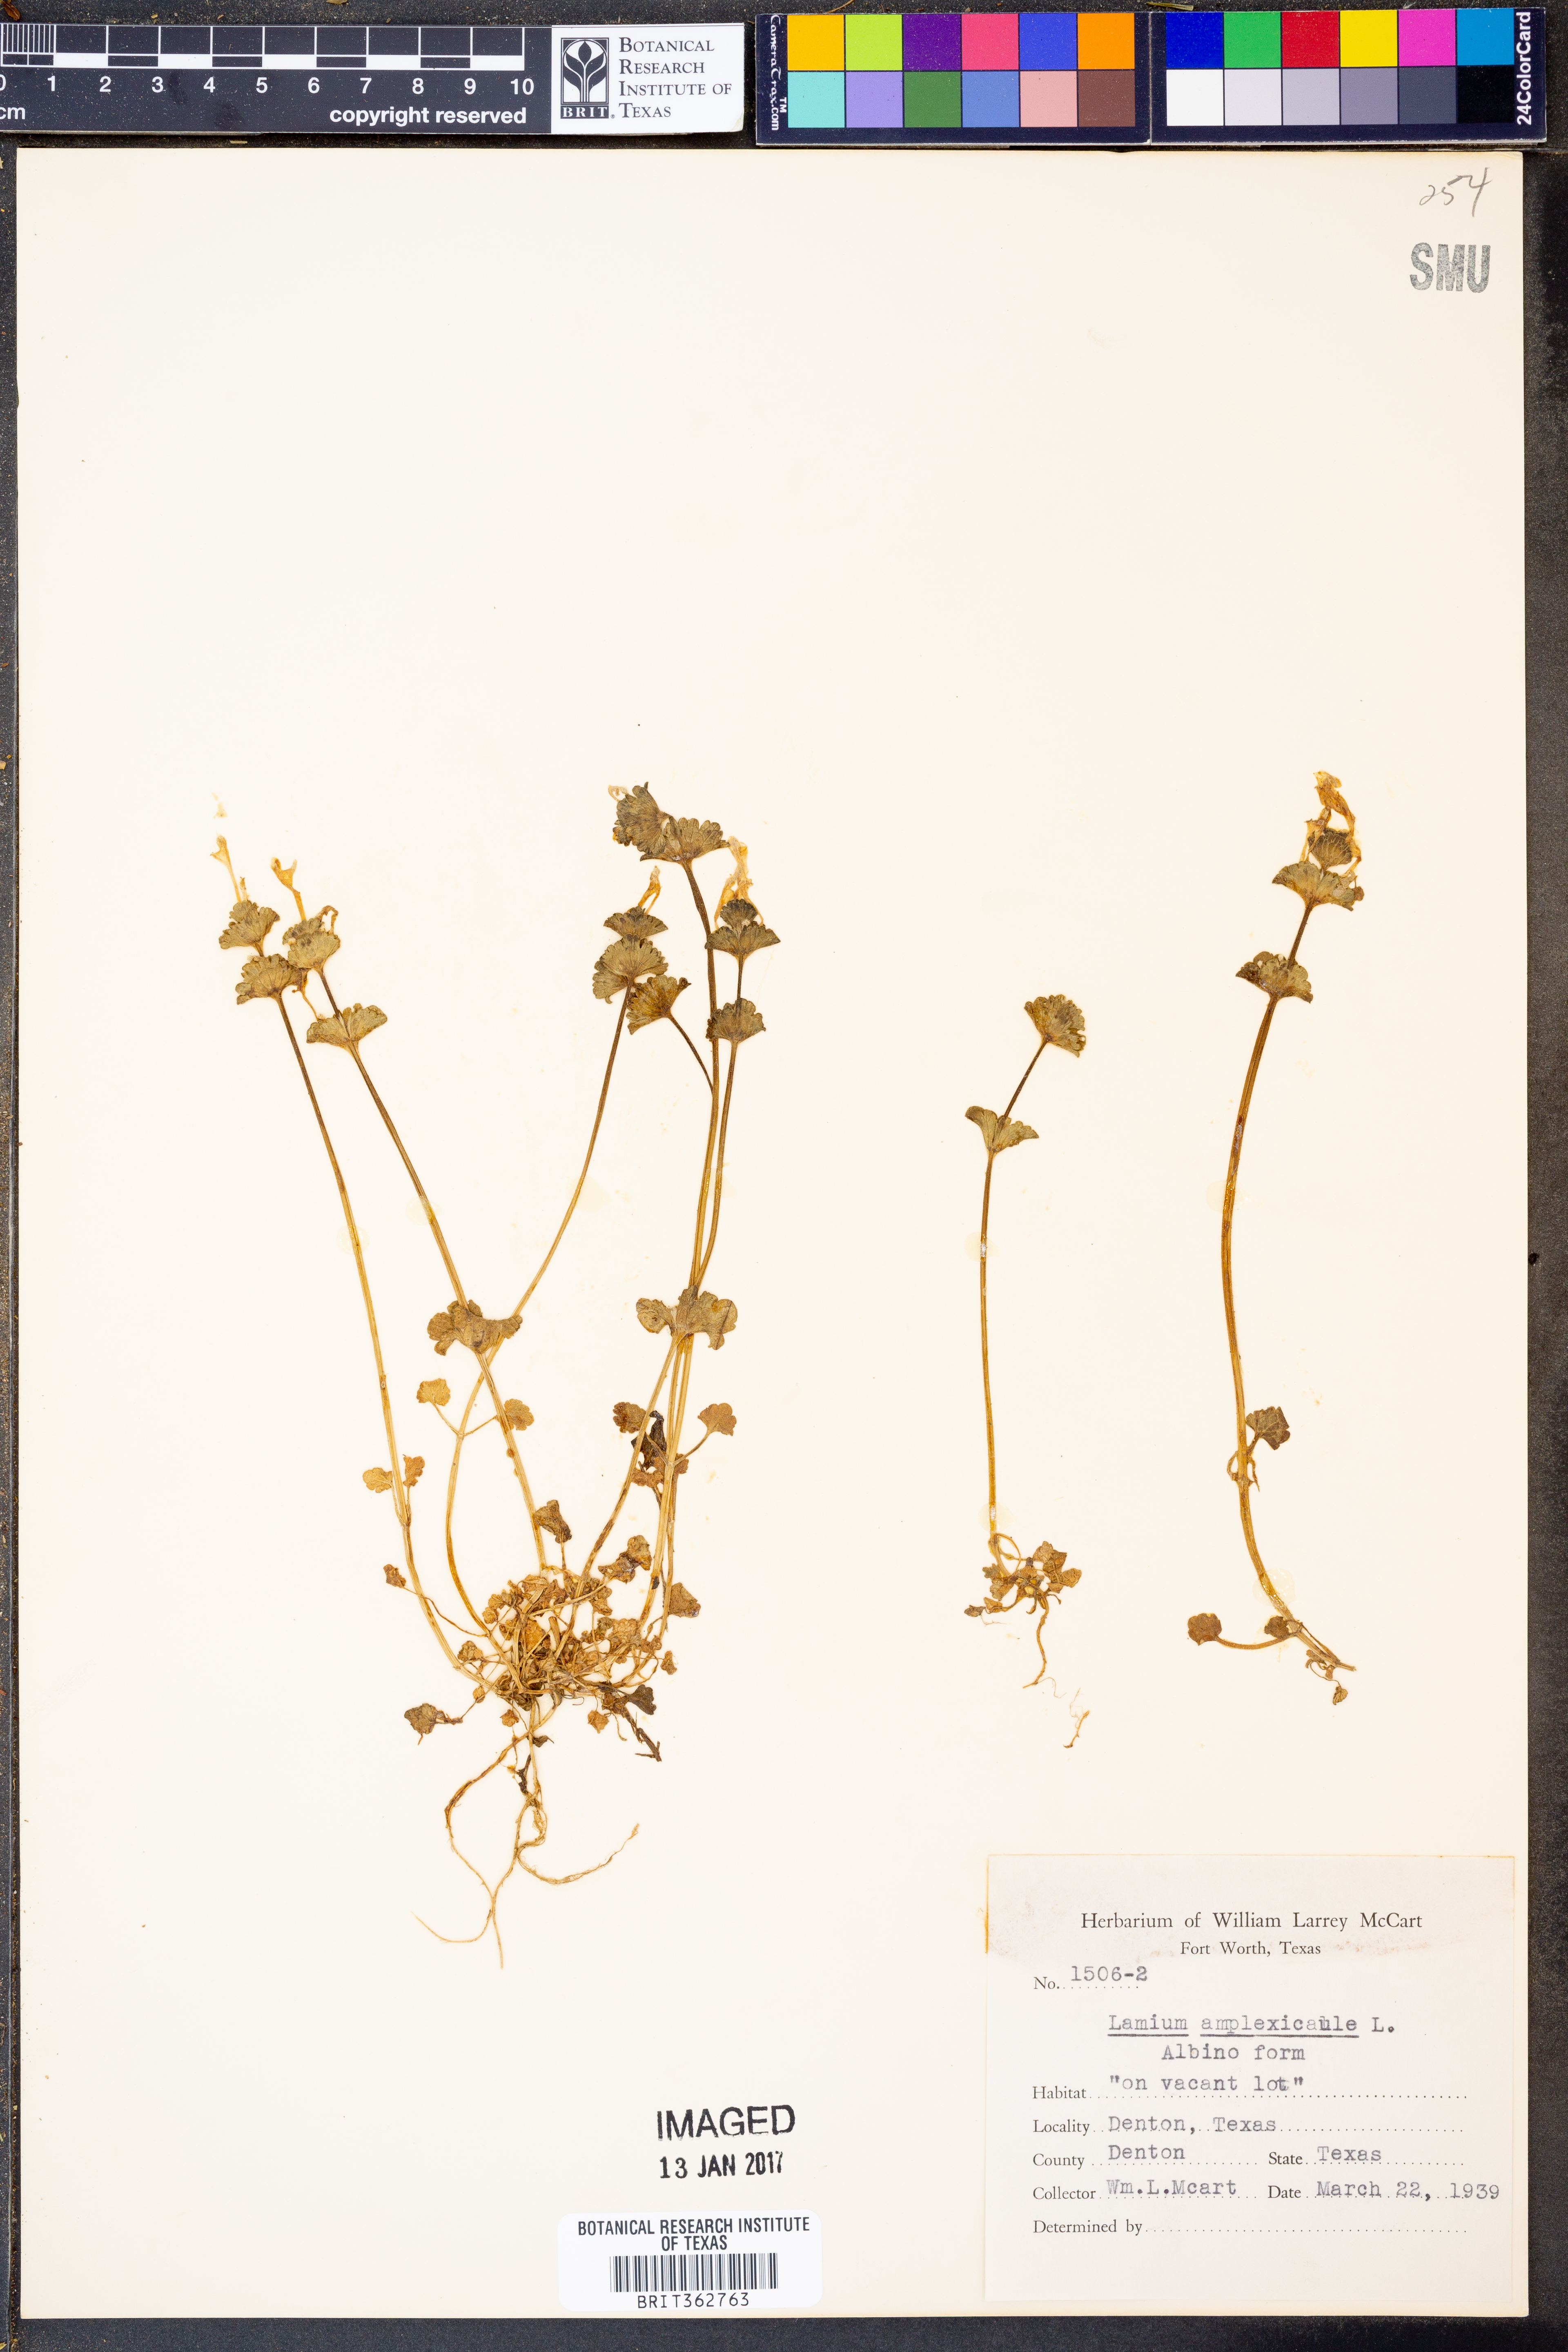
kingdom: Plantae
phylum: Tracheophyta
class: Magnoliopsida
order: Lamiales
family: Lamiaceae
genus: Lamium
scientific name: Lamium amplexicaule
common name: Henbit dead-nettle
